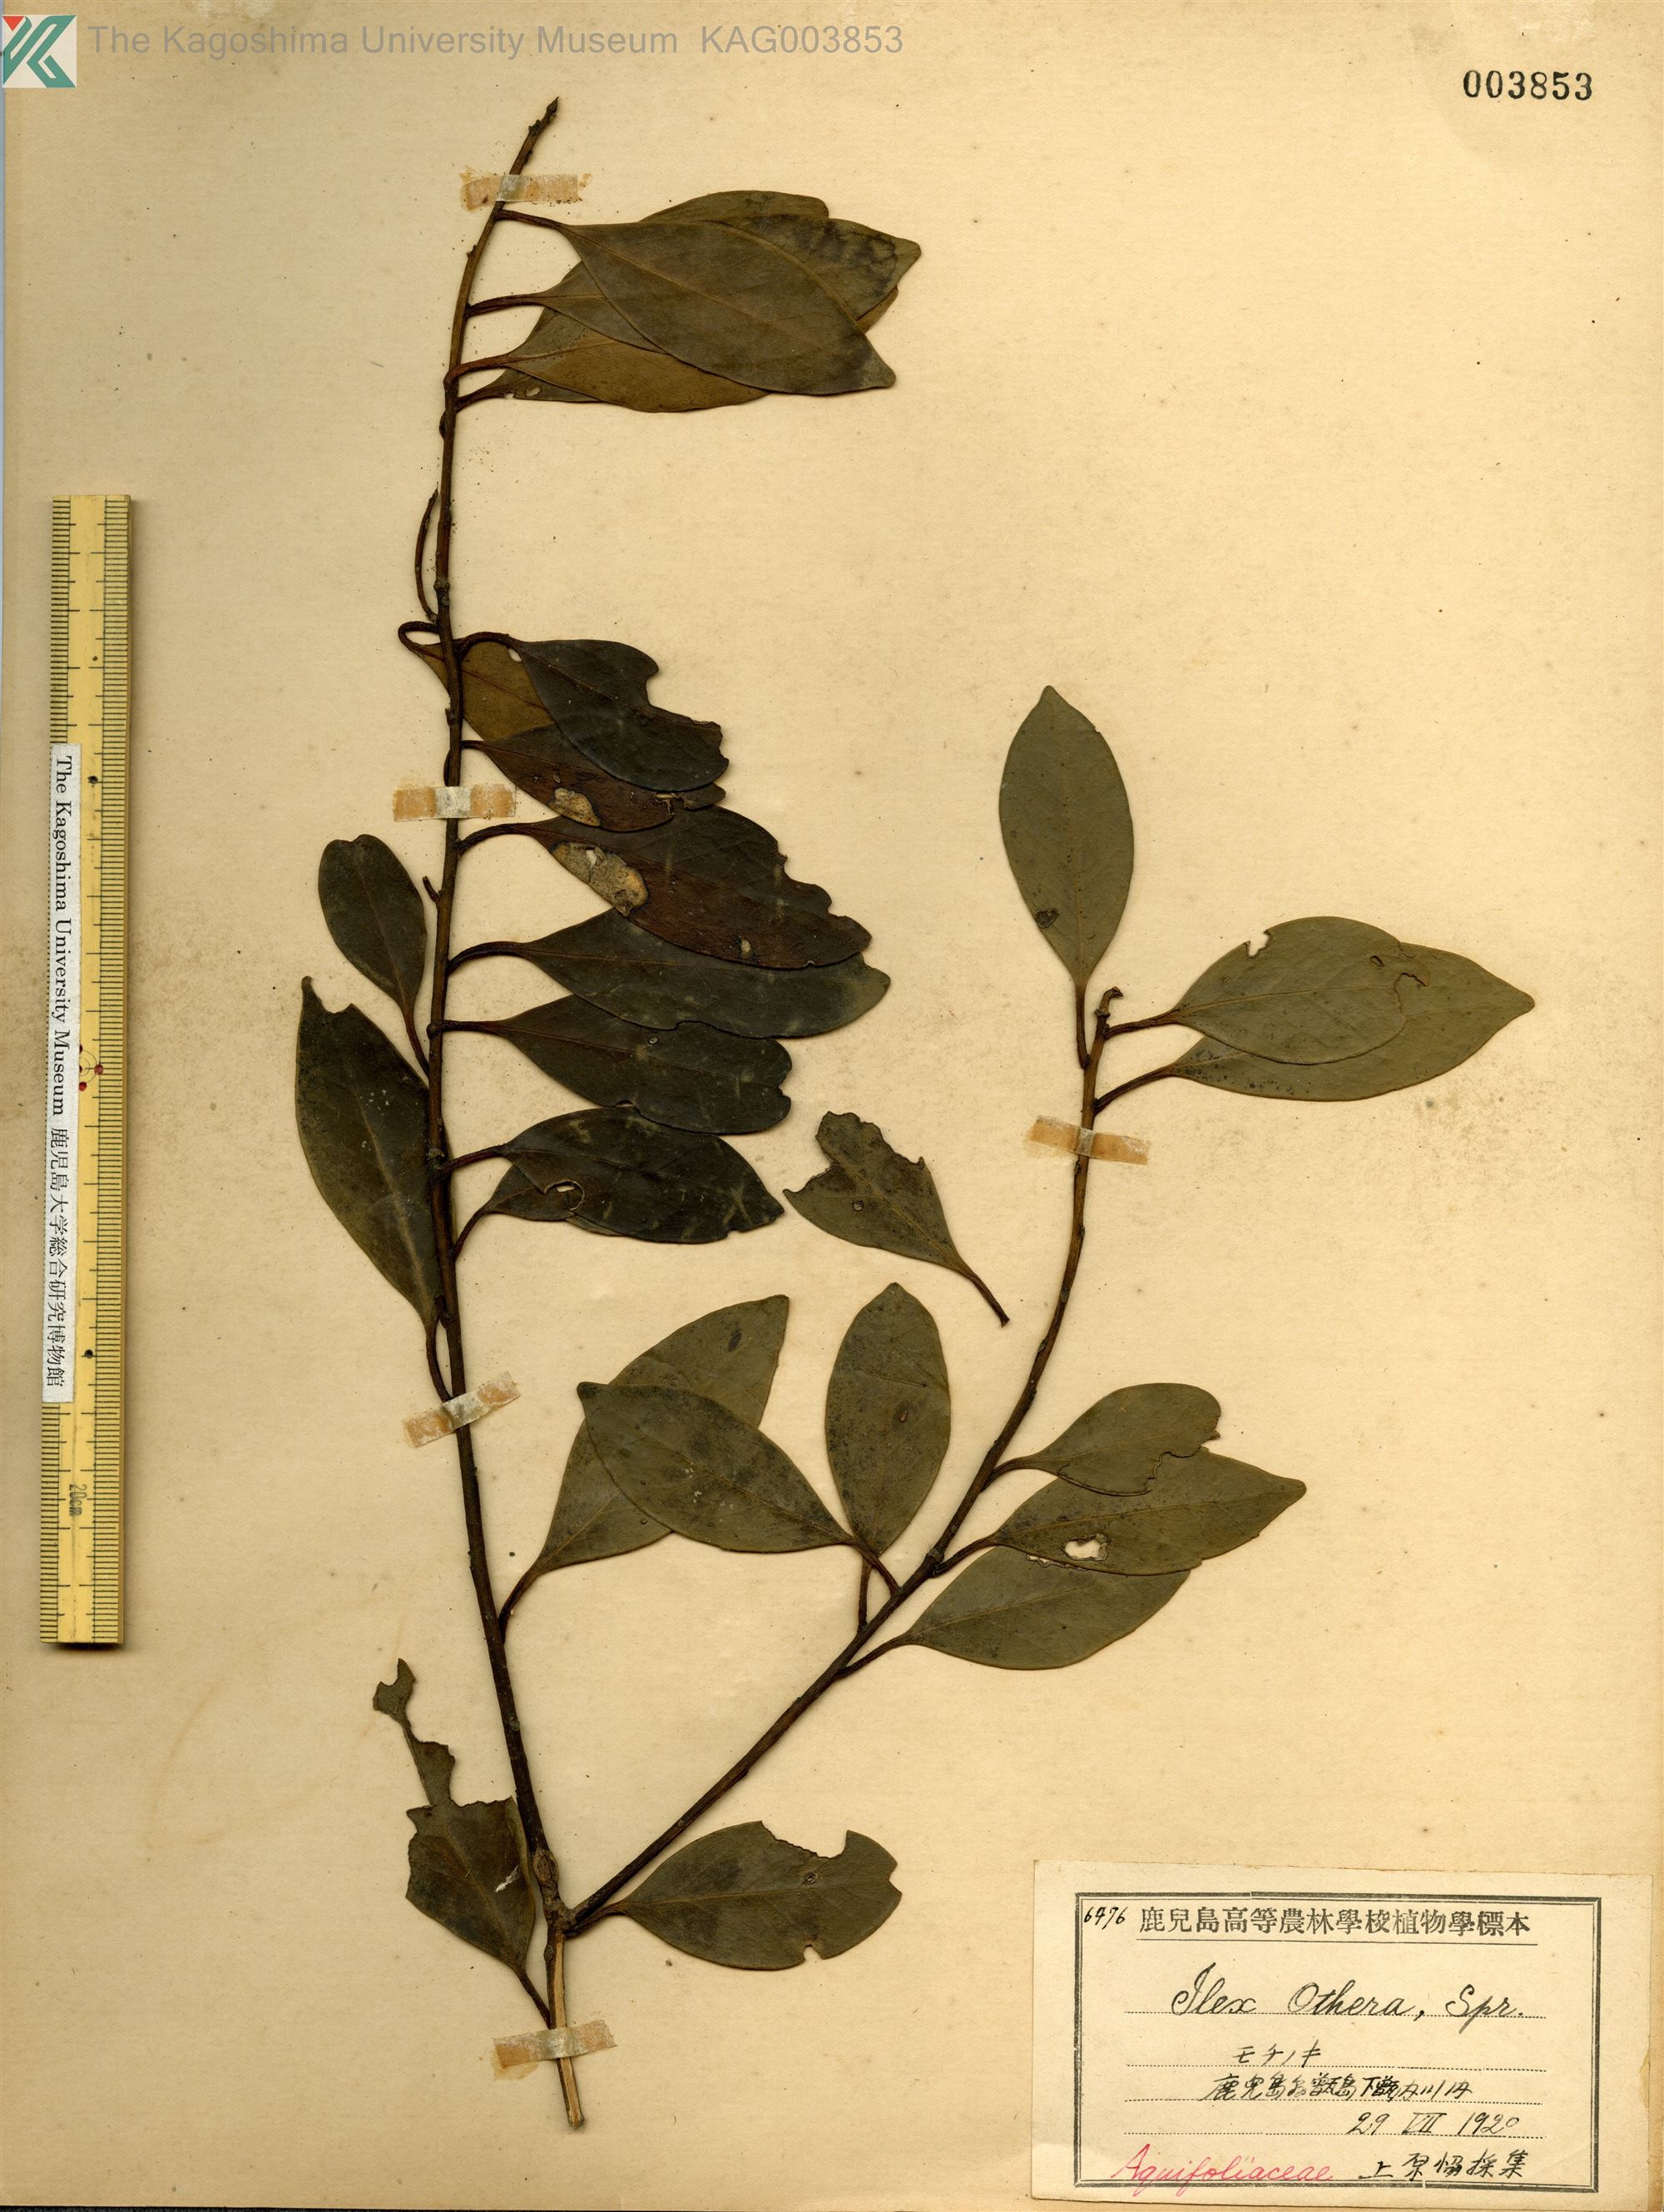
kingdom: Plantae
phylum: Tracheophyta
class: Magnoliopsida
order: Aquifoliales
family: Aquifoliaceae
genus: Ilex
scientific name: Ilex integra
